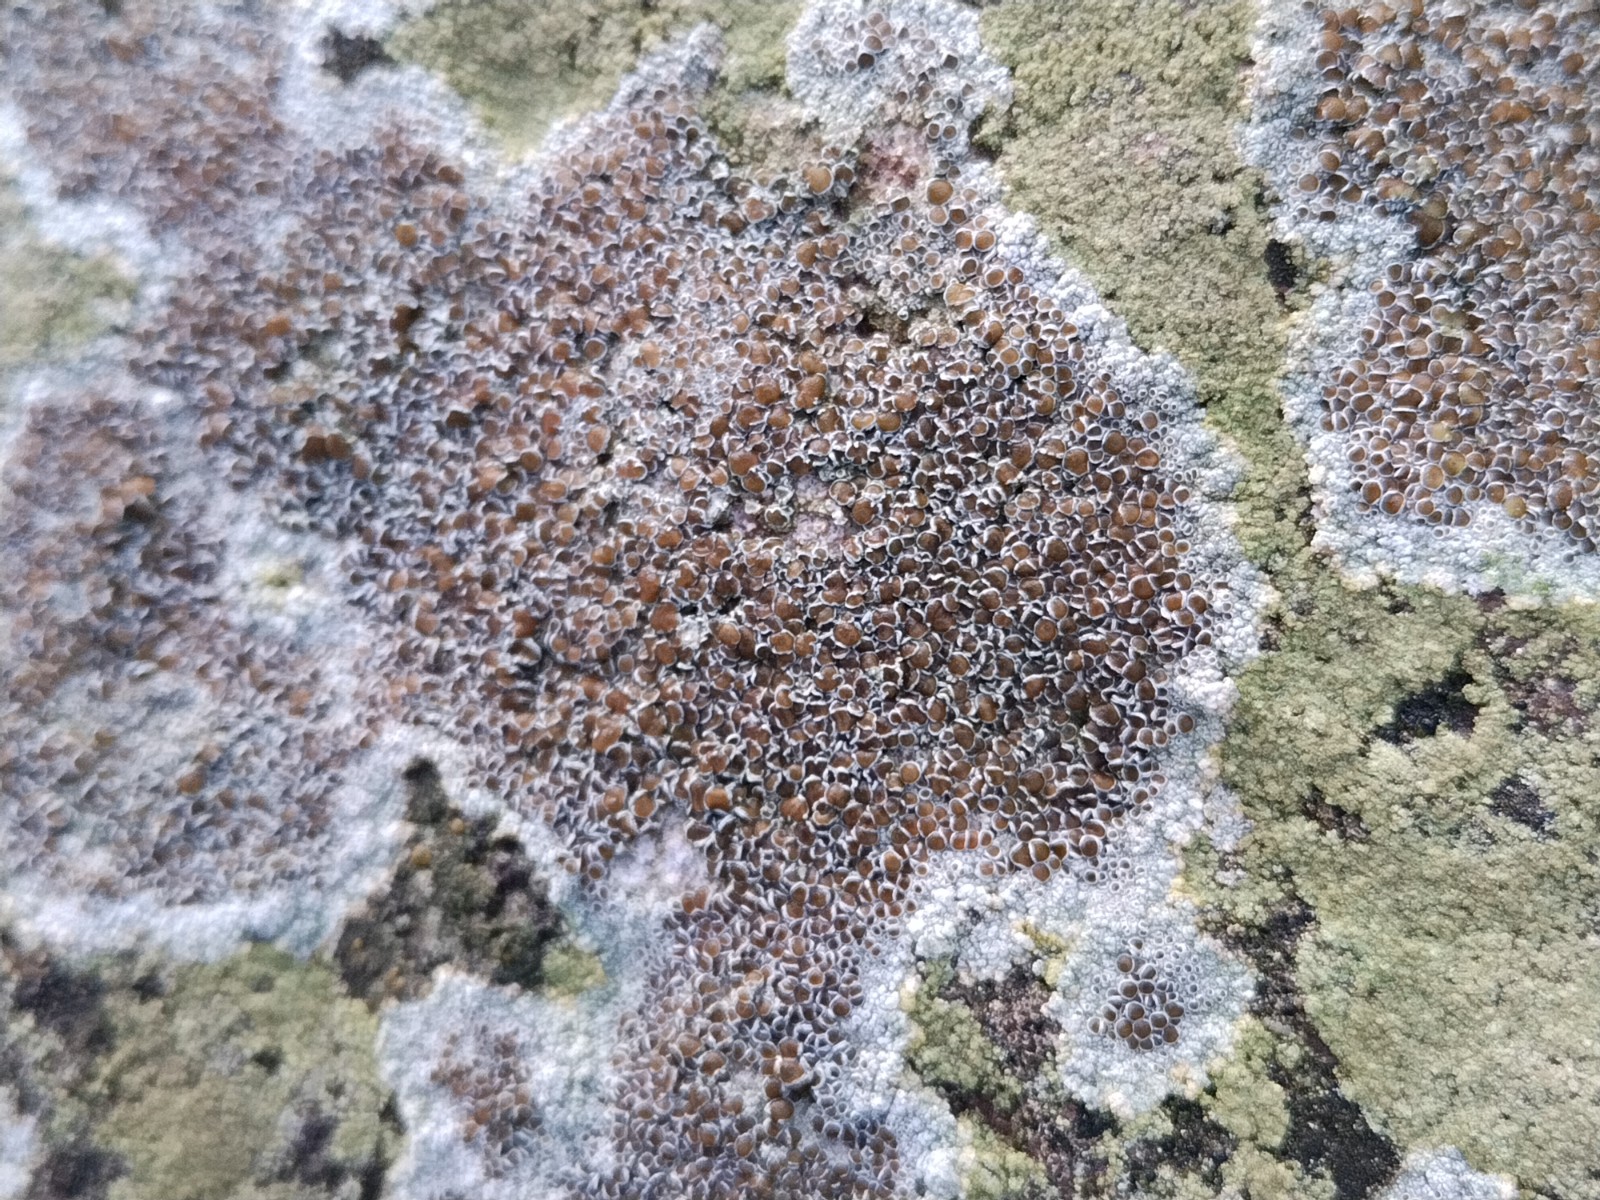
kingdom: Fungi
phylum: Ascomycota
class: Lecanoromycetes
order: Lecanorales
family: Lecanoraceae
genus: Lecanora
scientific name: Lecanora campestris
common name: mur-kantskivelav
